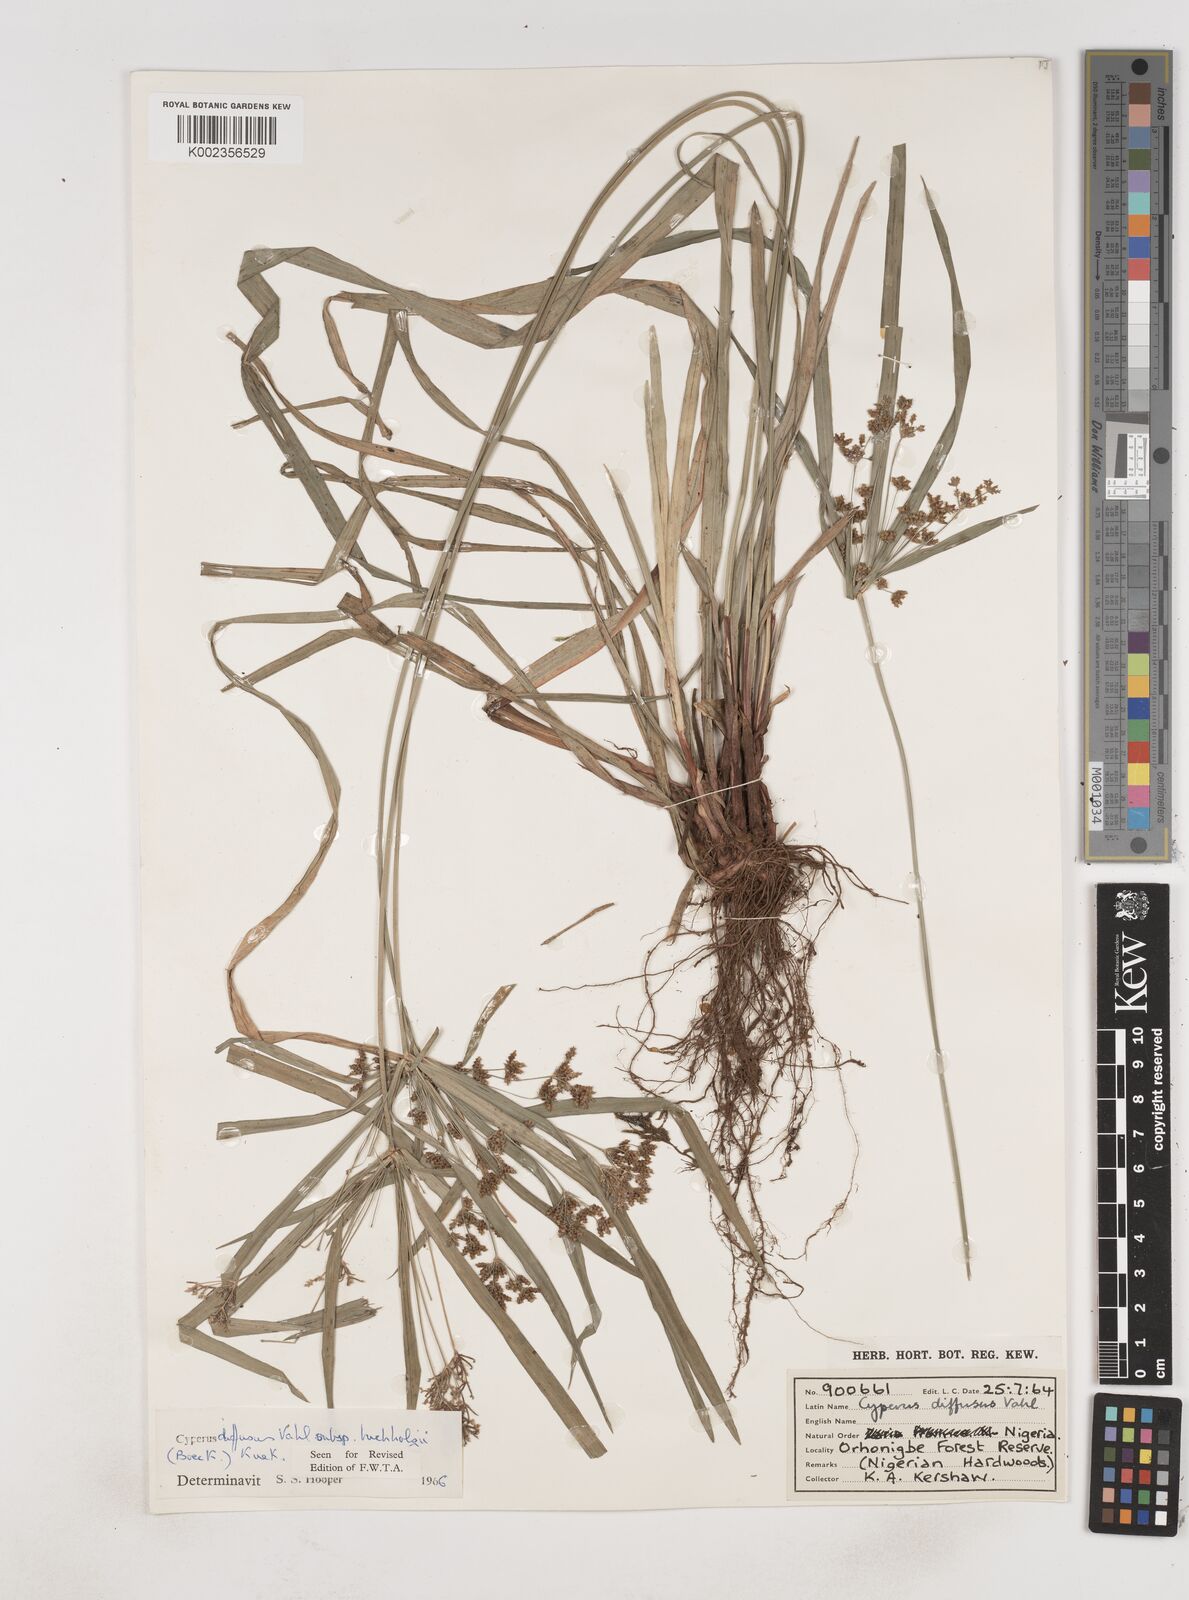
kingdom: Plantae
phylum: Tracheophyta
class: Liliopsida
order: Poales
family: Cyperaceae
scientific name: Cyperaceae
